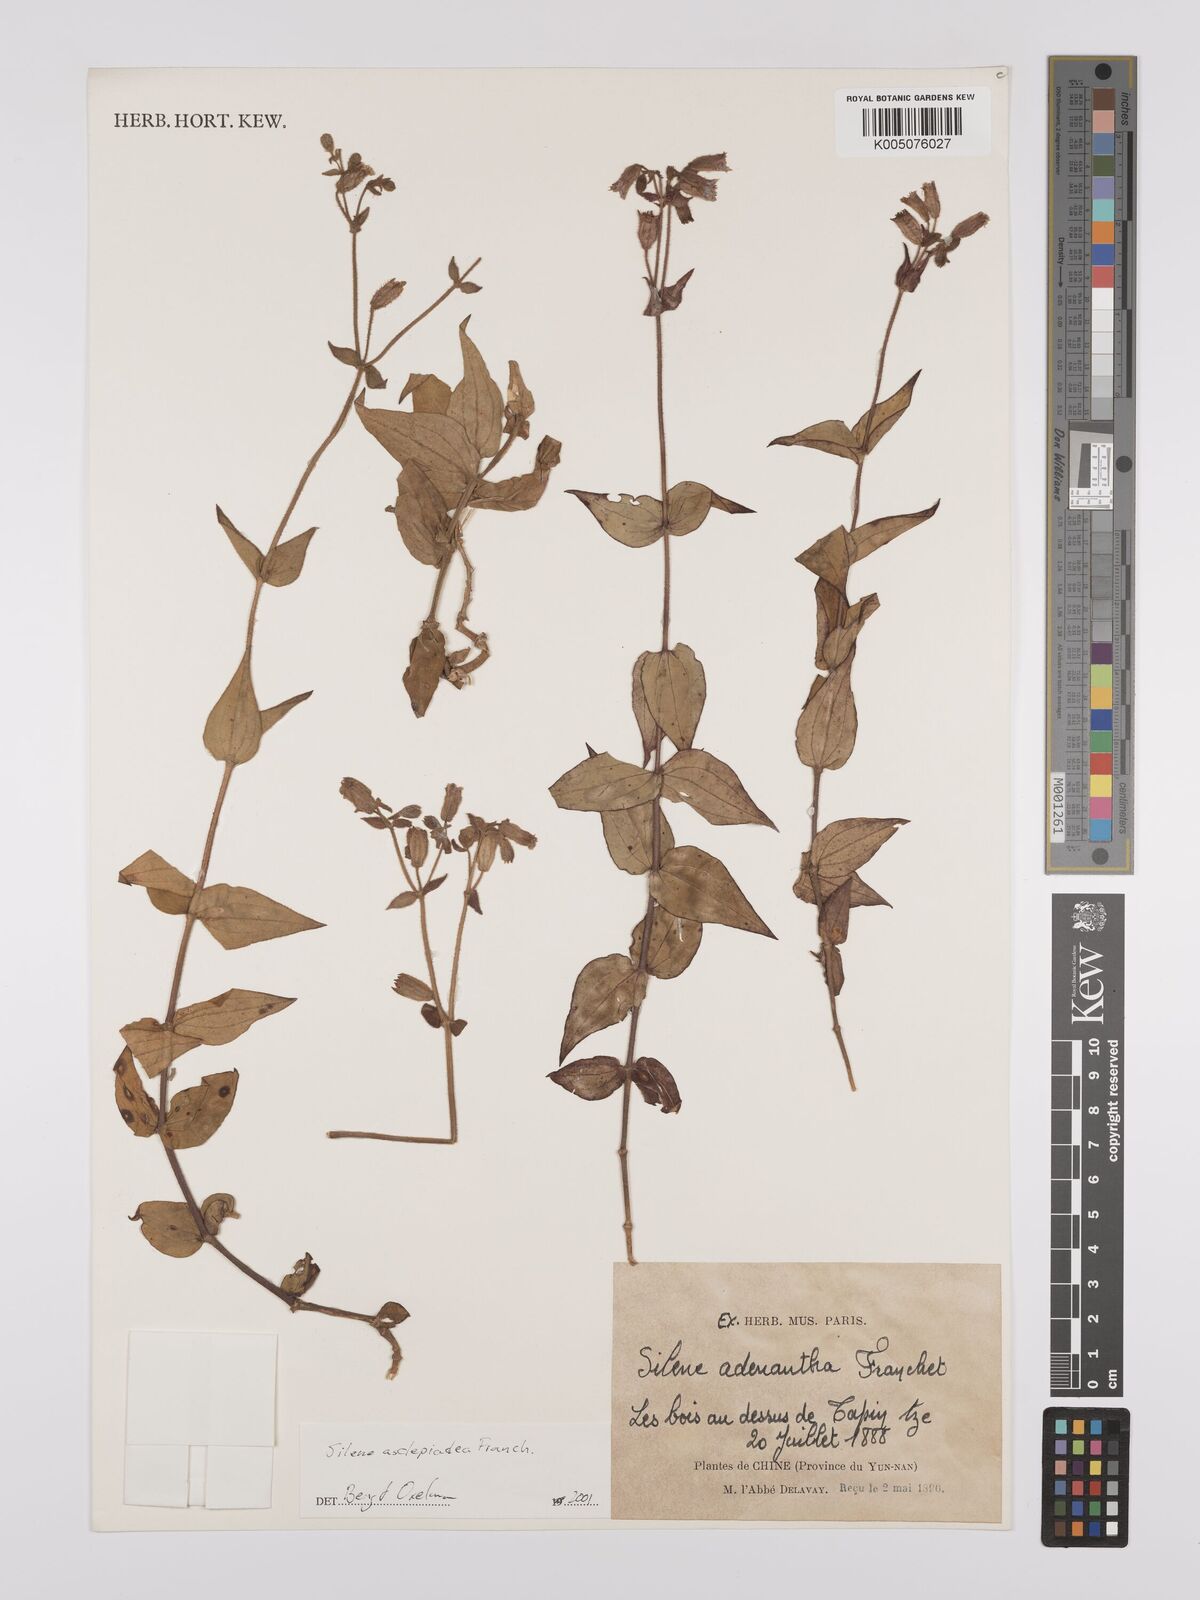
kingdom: Plantae
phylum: Tracheophyta
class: Magnoliopsida
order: Caryophyllales
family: Caryophyllaceae
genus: Silene
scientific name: Silene asclepiadea
